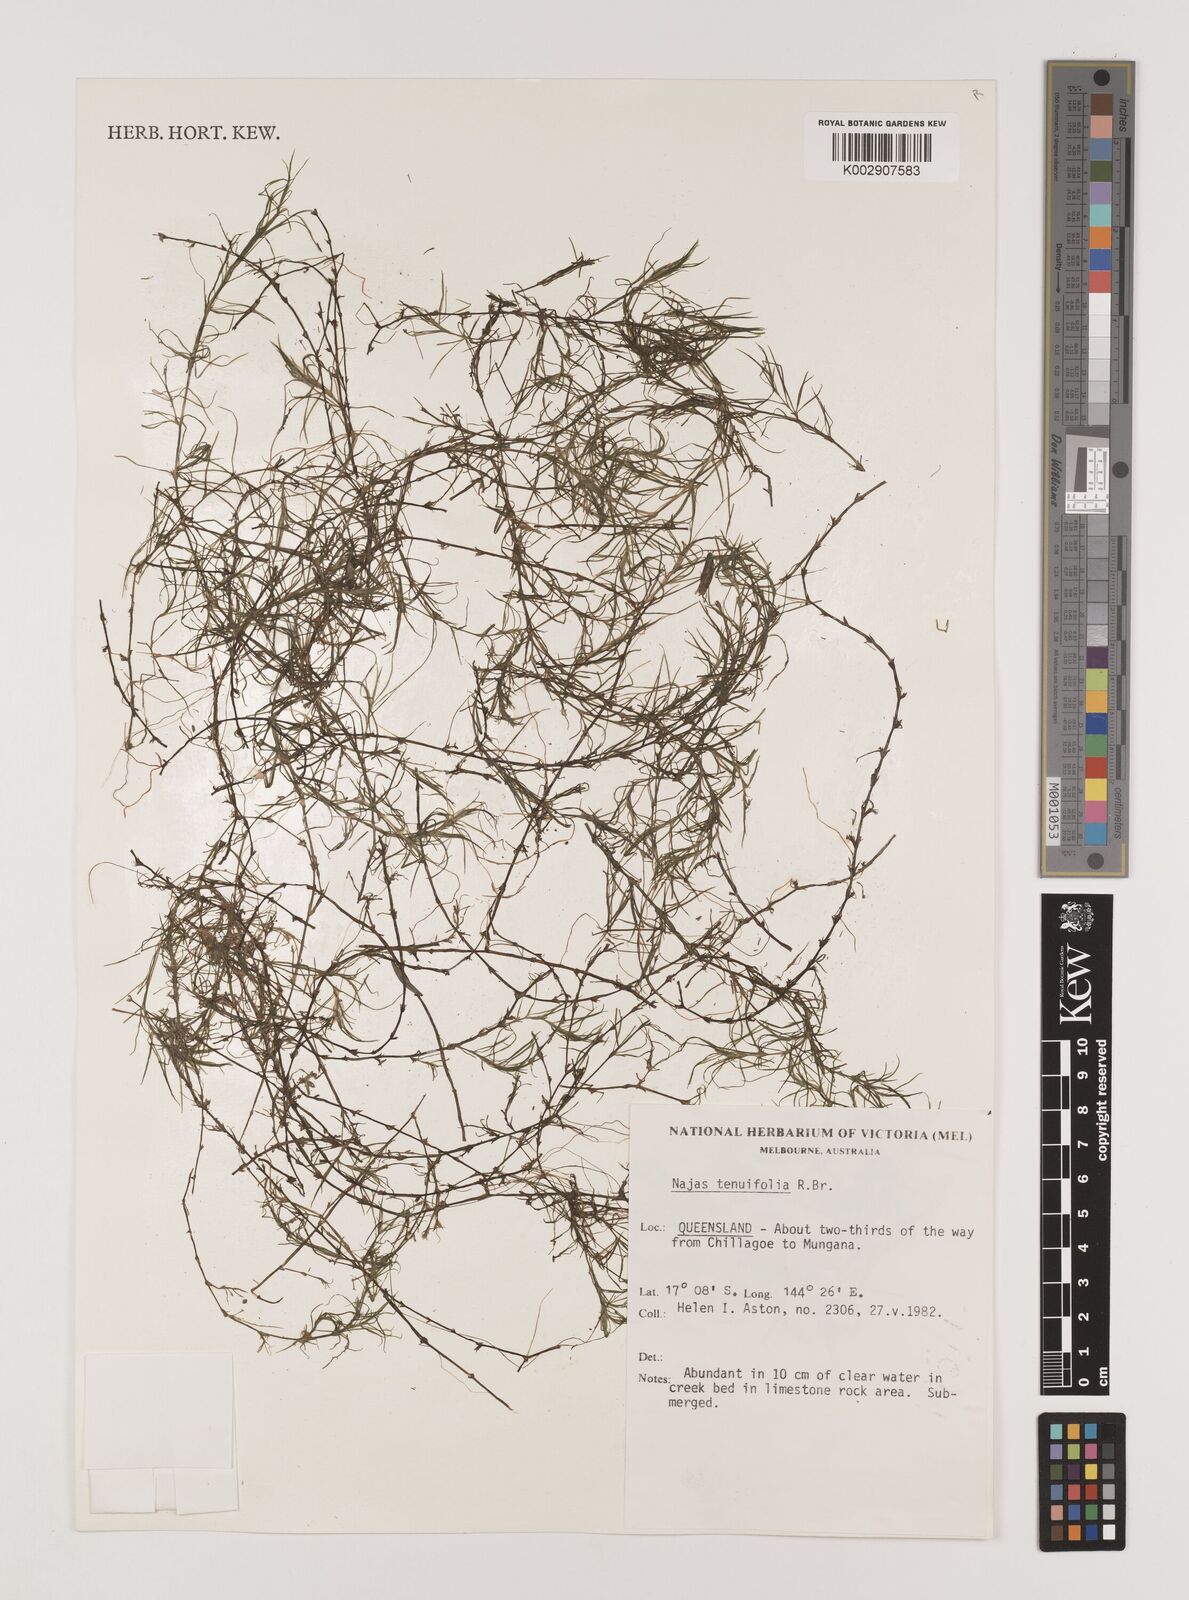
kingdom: Plantae
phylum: Tracheophyta
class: Liliopsida
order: Alismatales
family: Hydrocharitaceae
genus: Najas
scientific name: Najas tenuifolia
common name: Thin-leaved naiad
